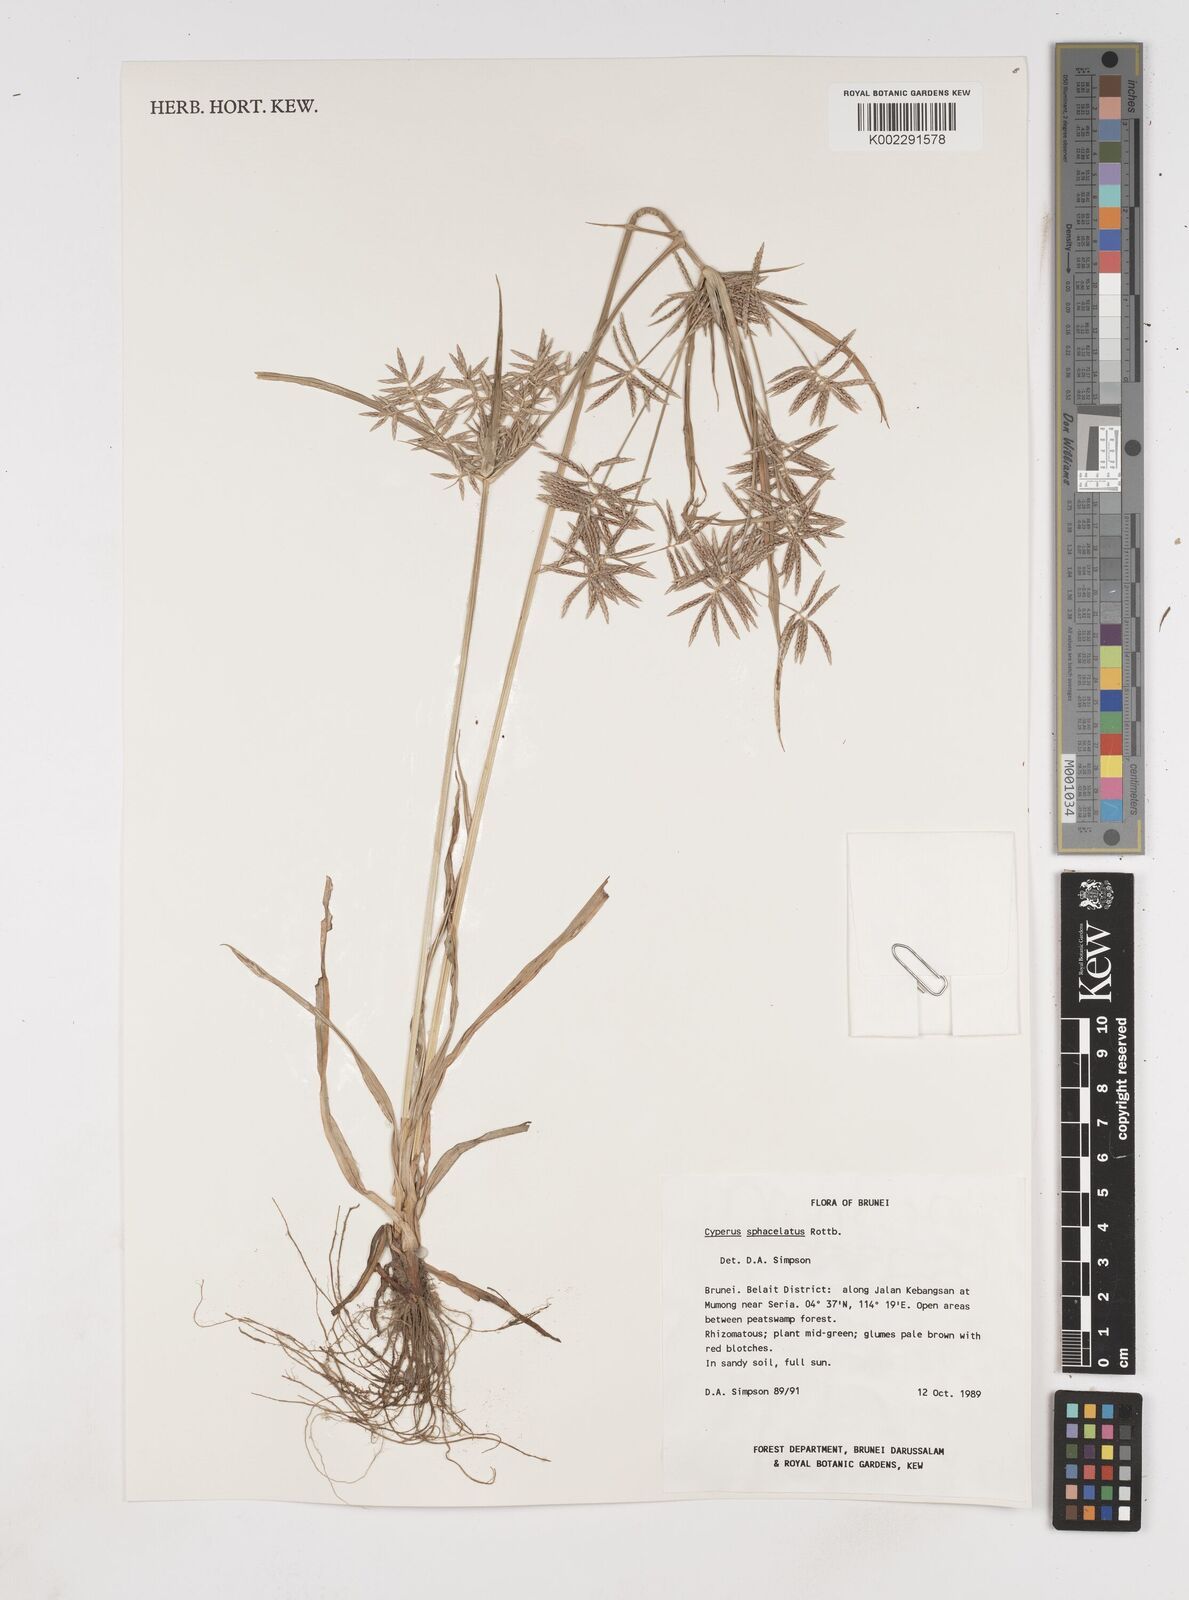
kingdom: Plantae
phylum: Tracheophyta
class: Liliopsida
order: Poales
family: Cyperaceae
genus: Cyperus
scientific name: Cyperus sphacelatus
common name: Roadside flatsedge
